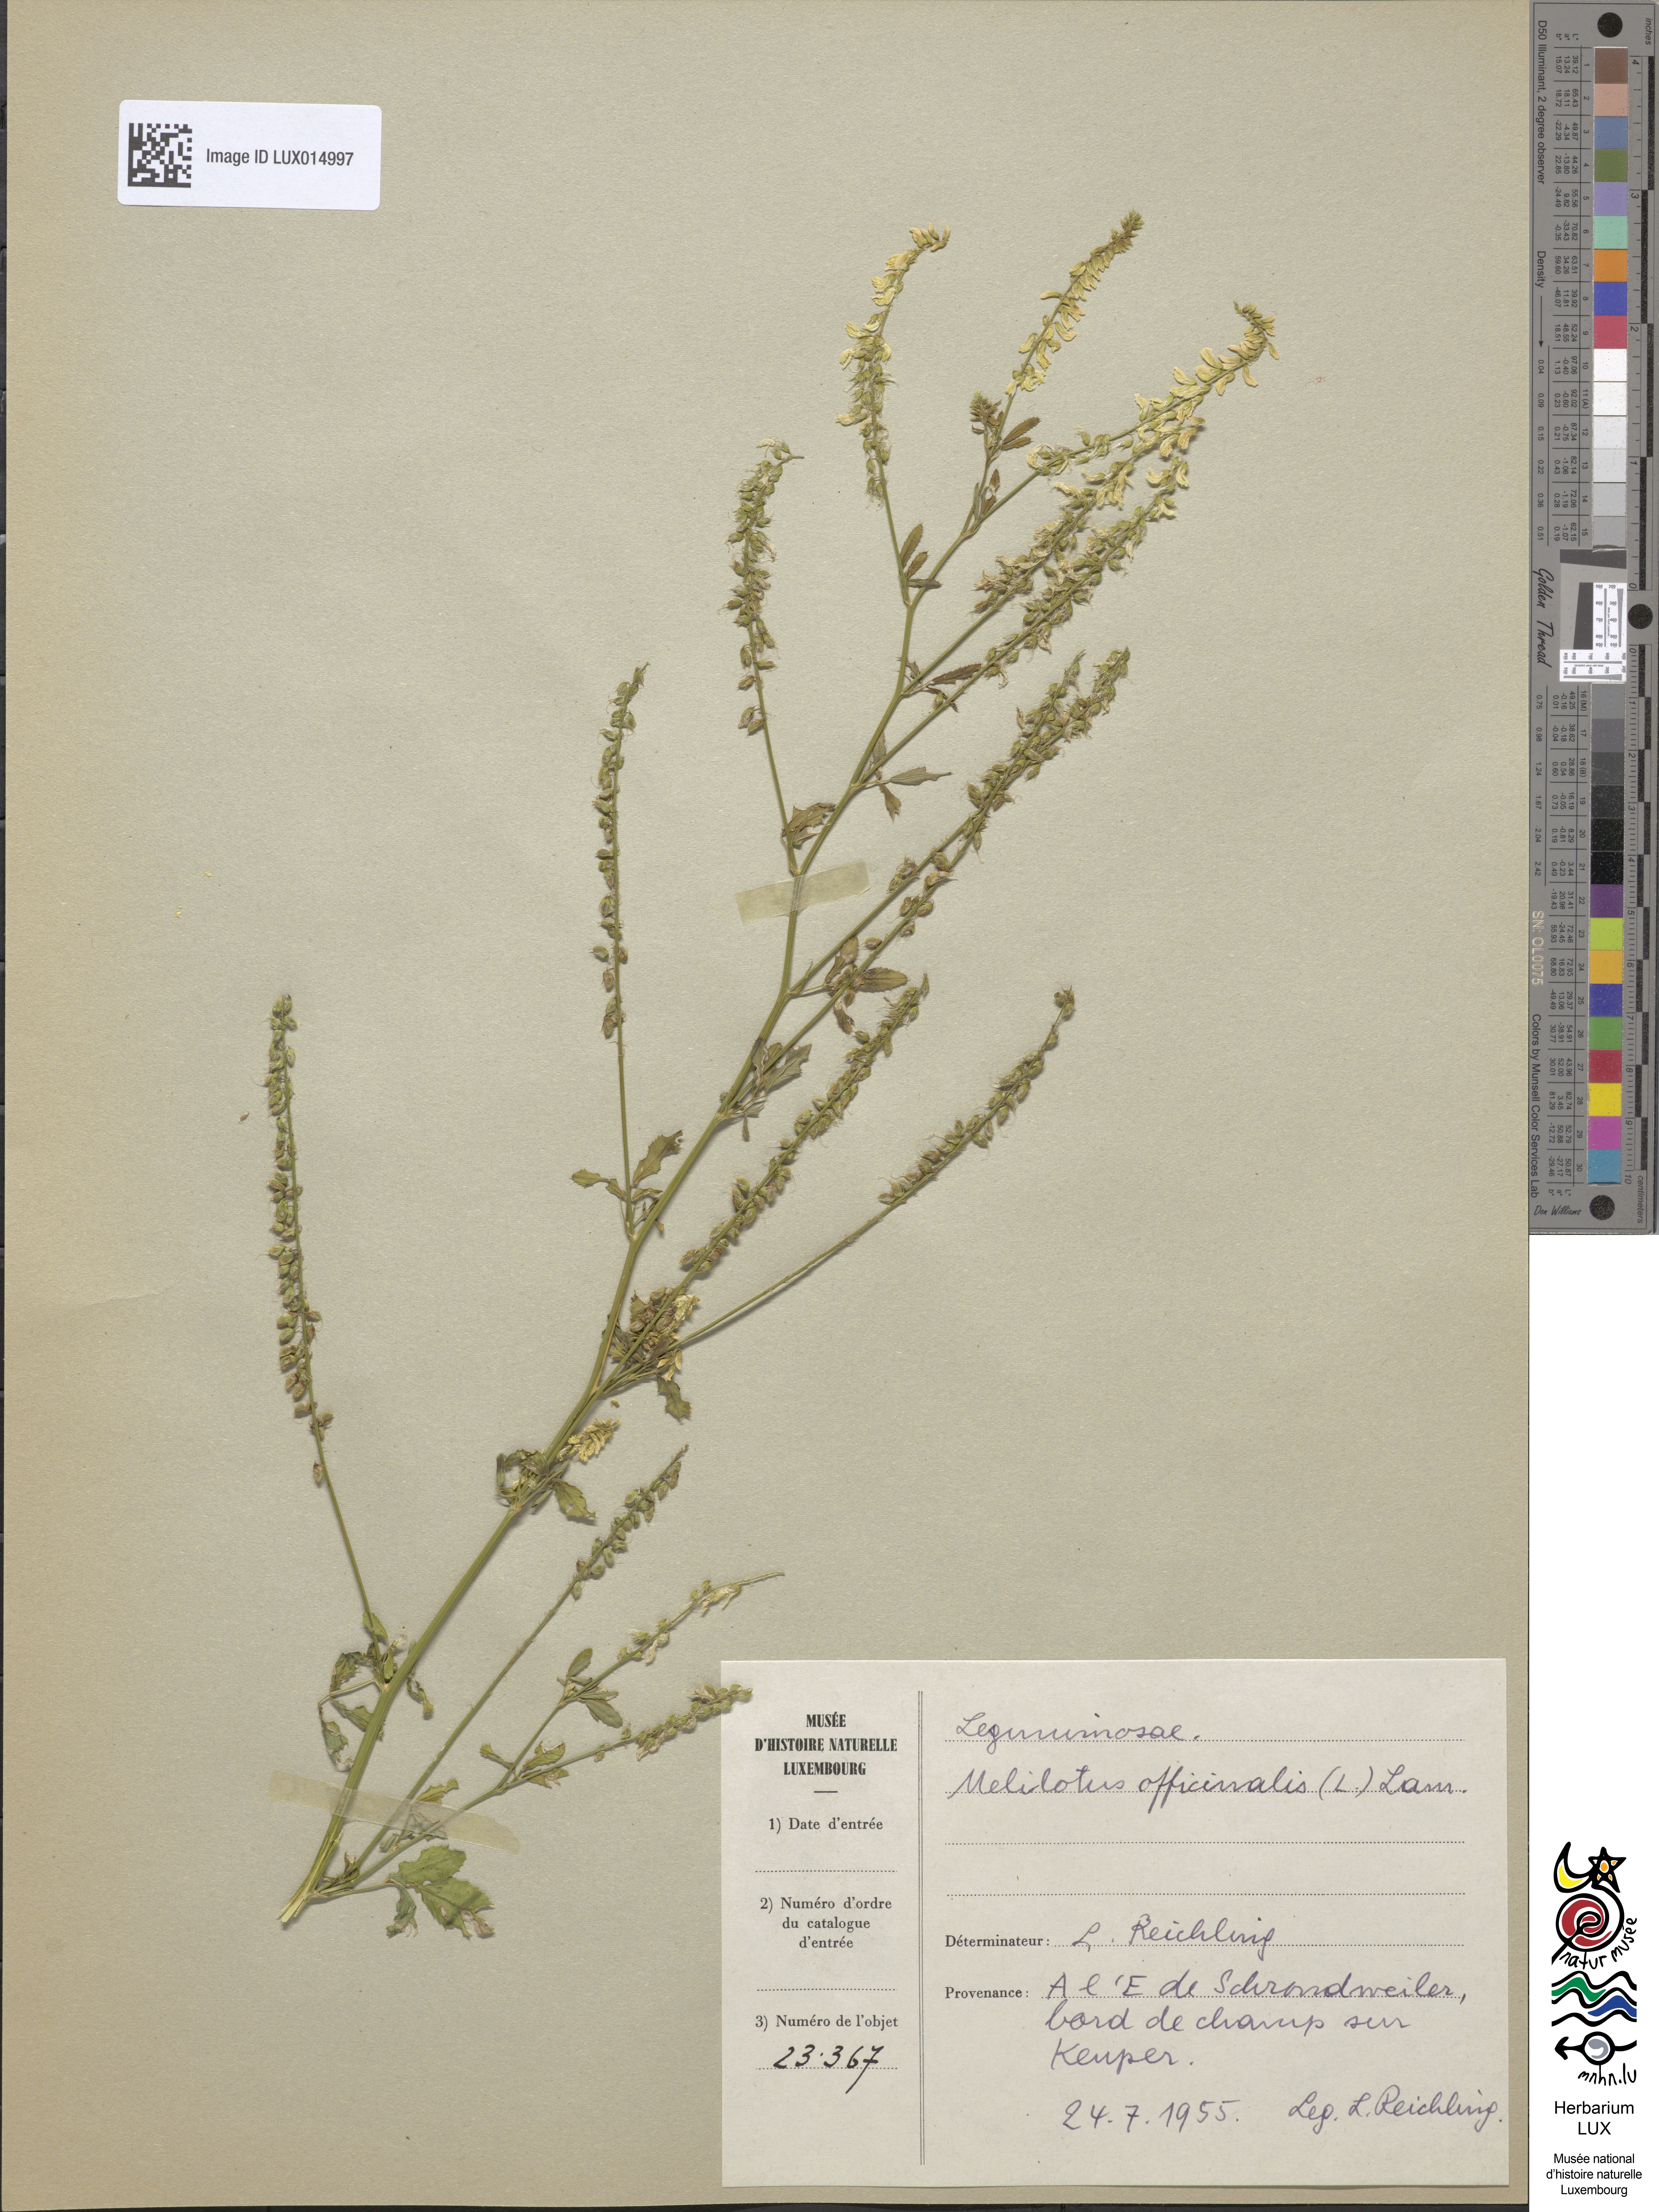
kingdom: Plantae
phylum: Tracheophyta
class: Magnoliopsida
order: Fabales
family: Fabaceae
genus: Melilotus
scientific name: Melilotus officinalis
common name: Sweetclover
